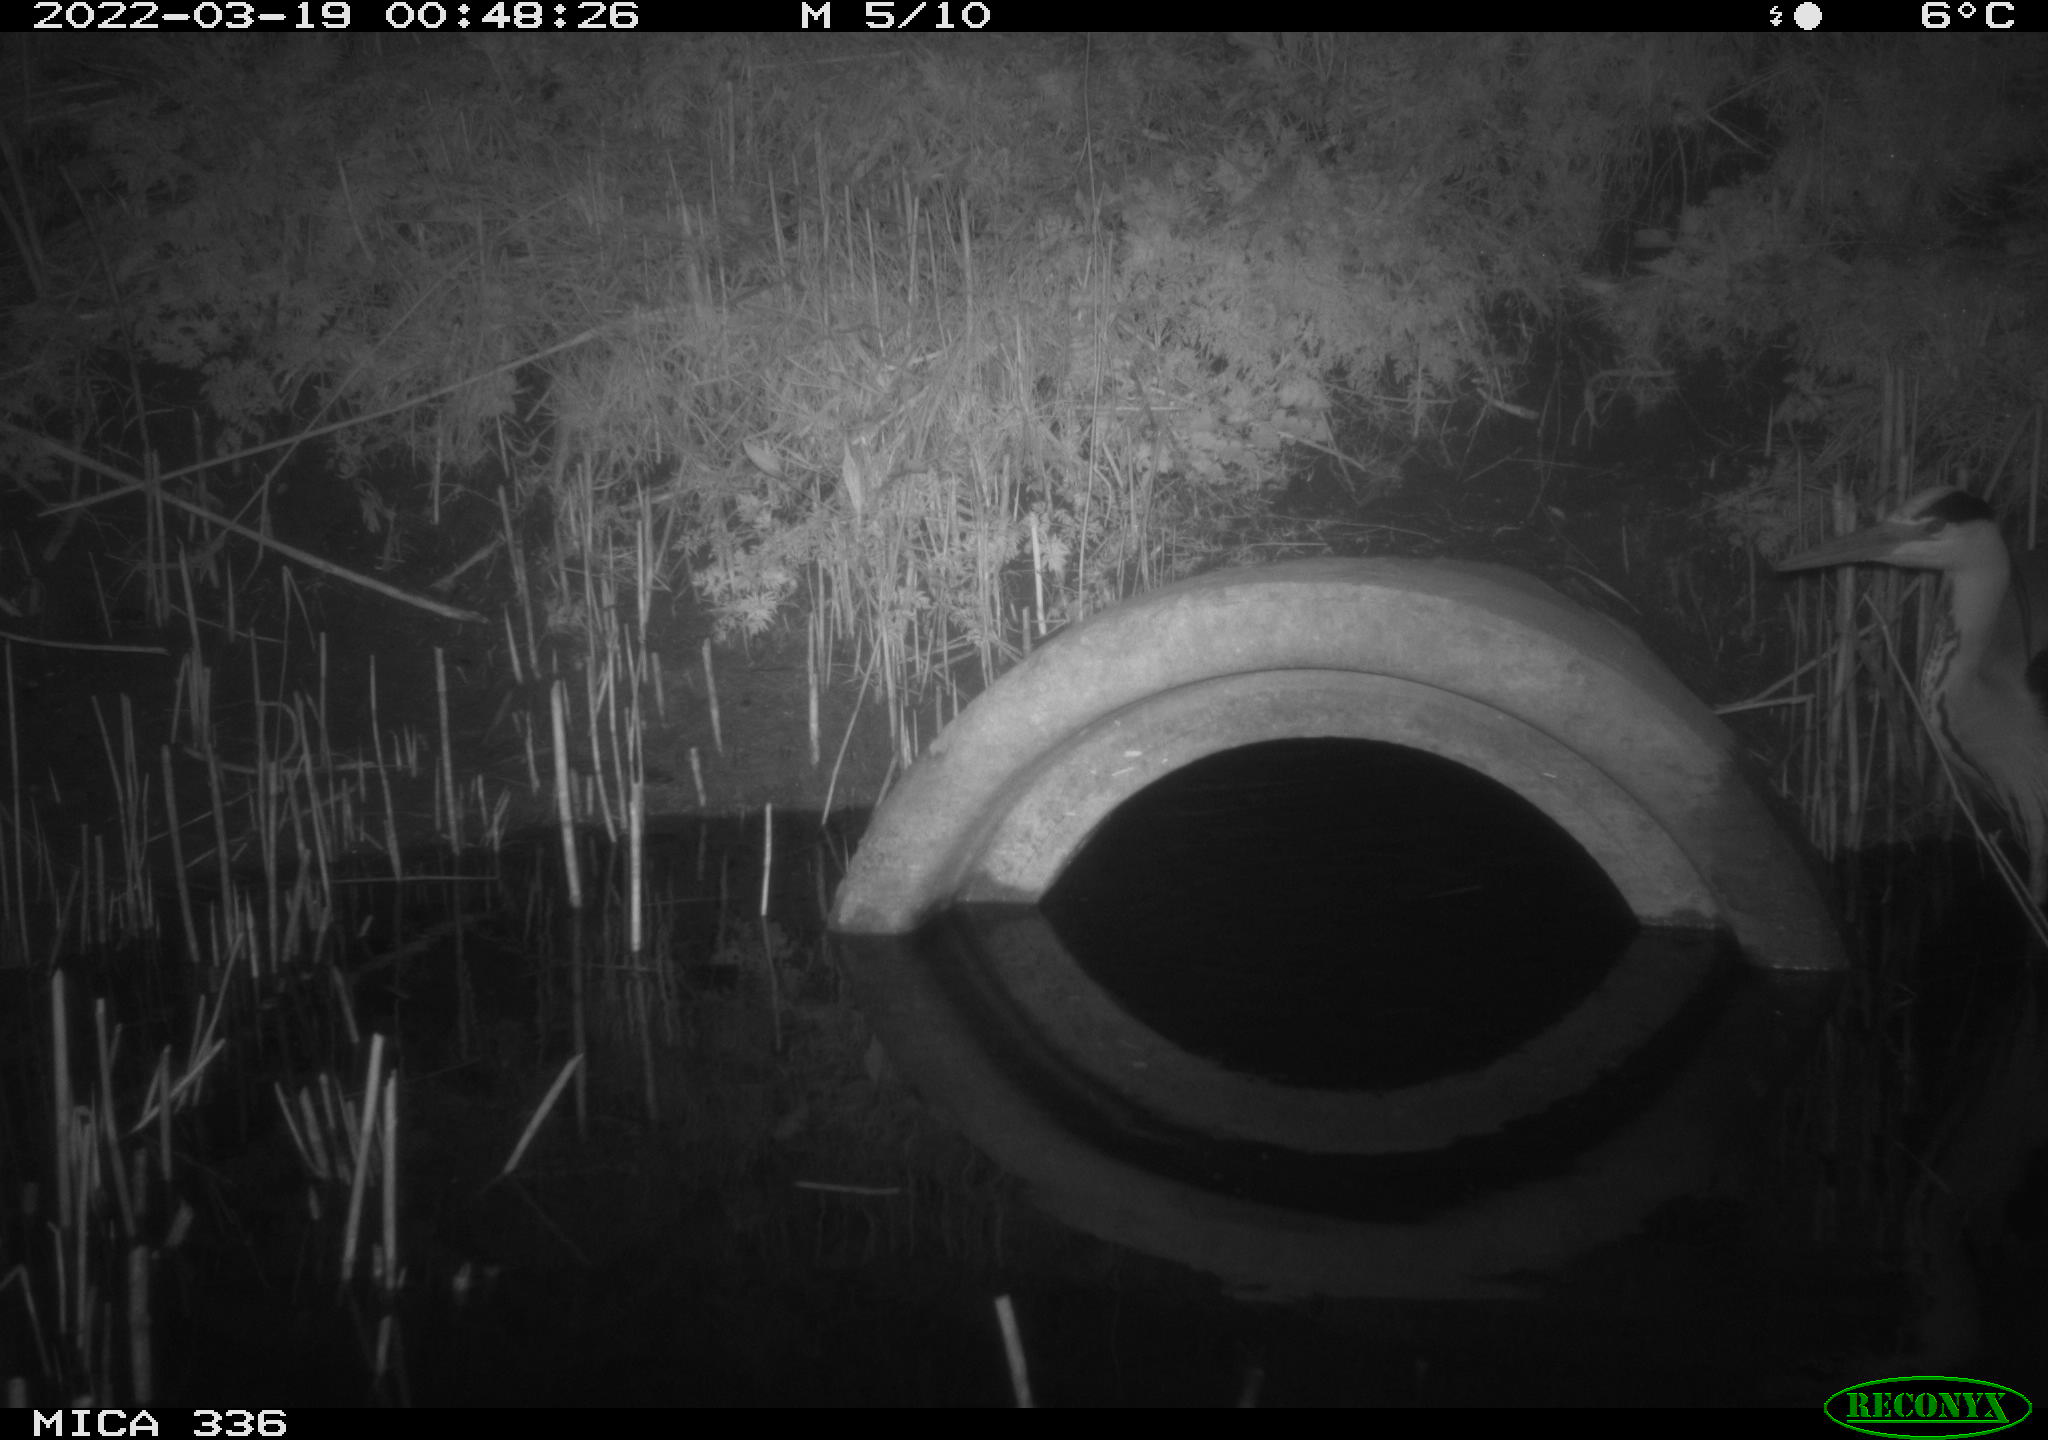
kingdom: Animalia
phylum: Chordata
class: Aves
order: Pelecaniformes
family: Ardeidae
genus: Ardea
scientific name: Ardea cinerea
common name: Grey heron
